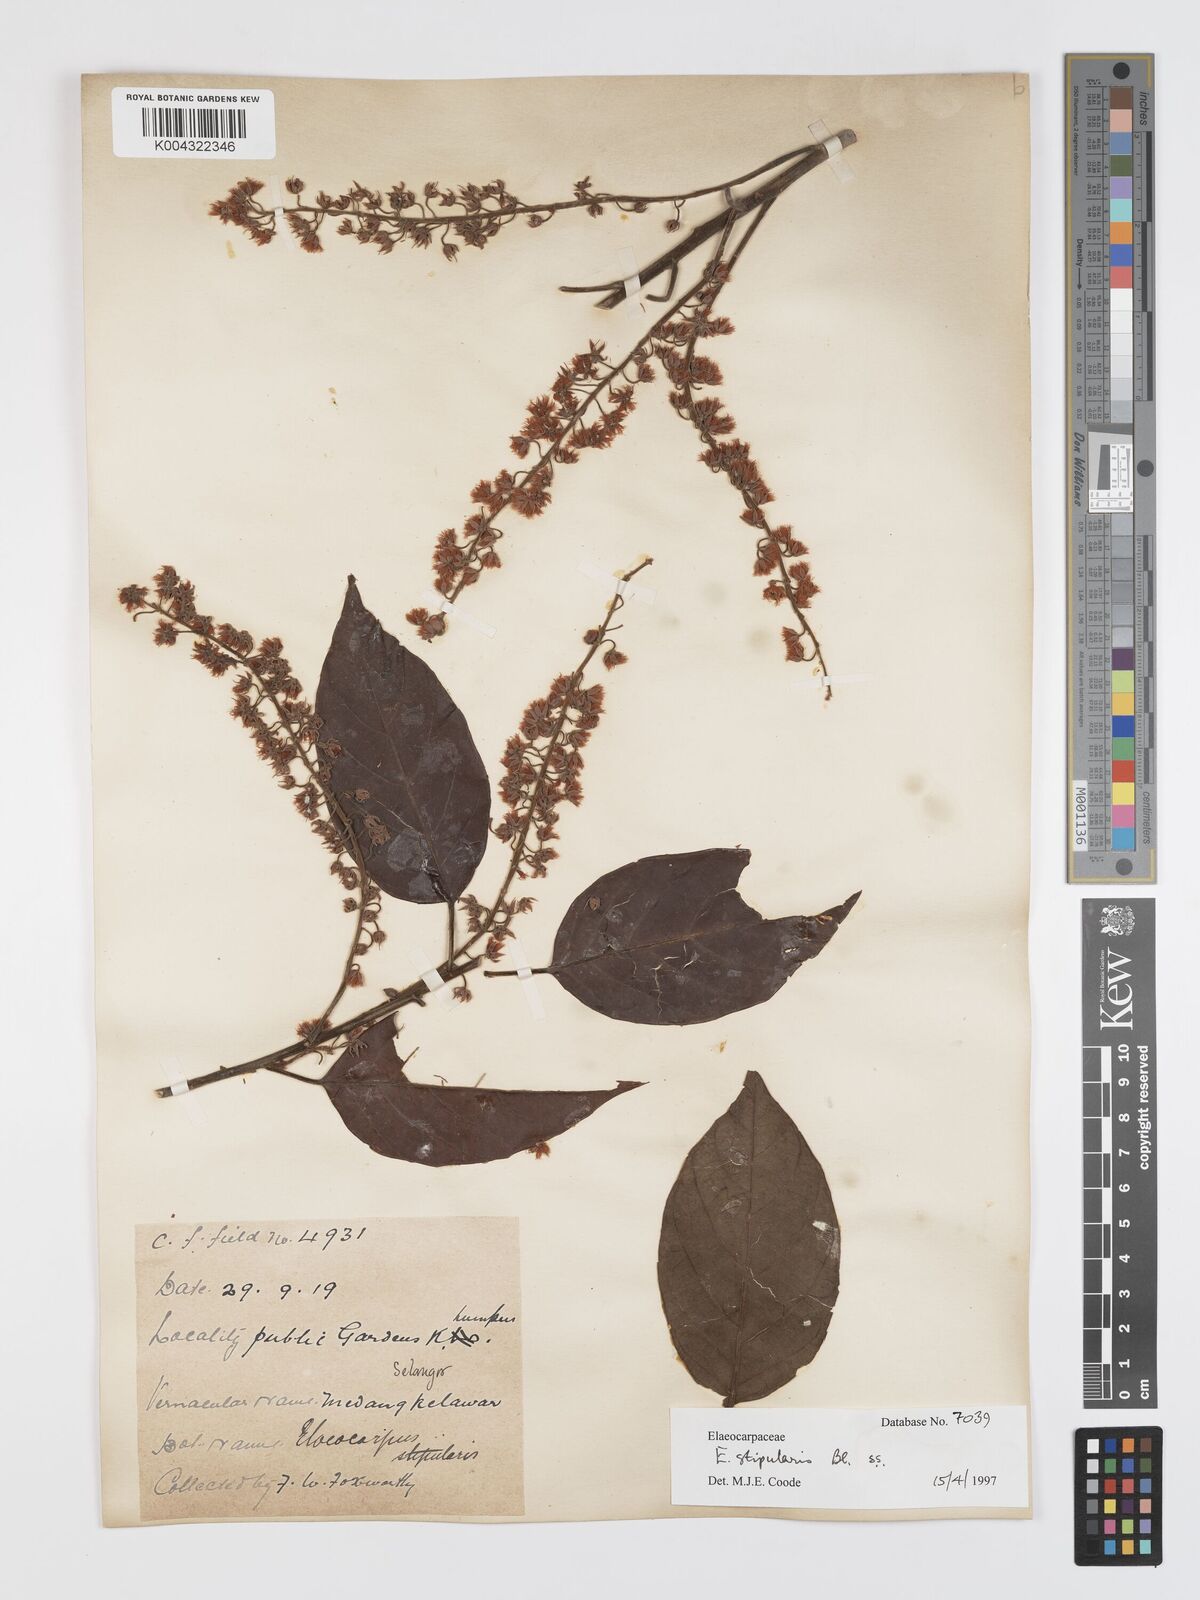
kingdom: Plantae
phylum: Tracheophyta
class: Magnoliopsida
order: Oxalidales
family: Elaeocarpaceae
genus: Elaeocarpus
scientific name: Elaeocarpus stipularis
